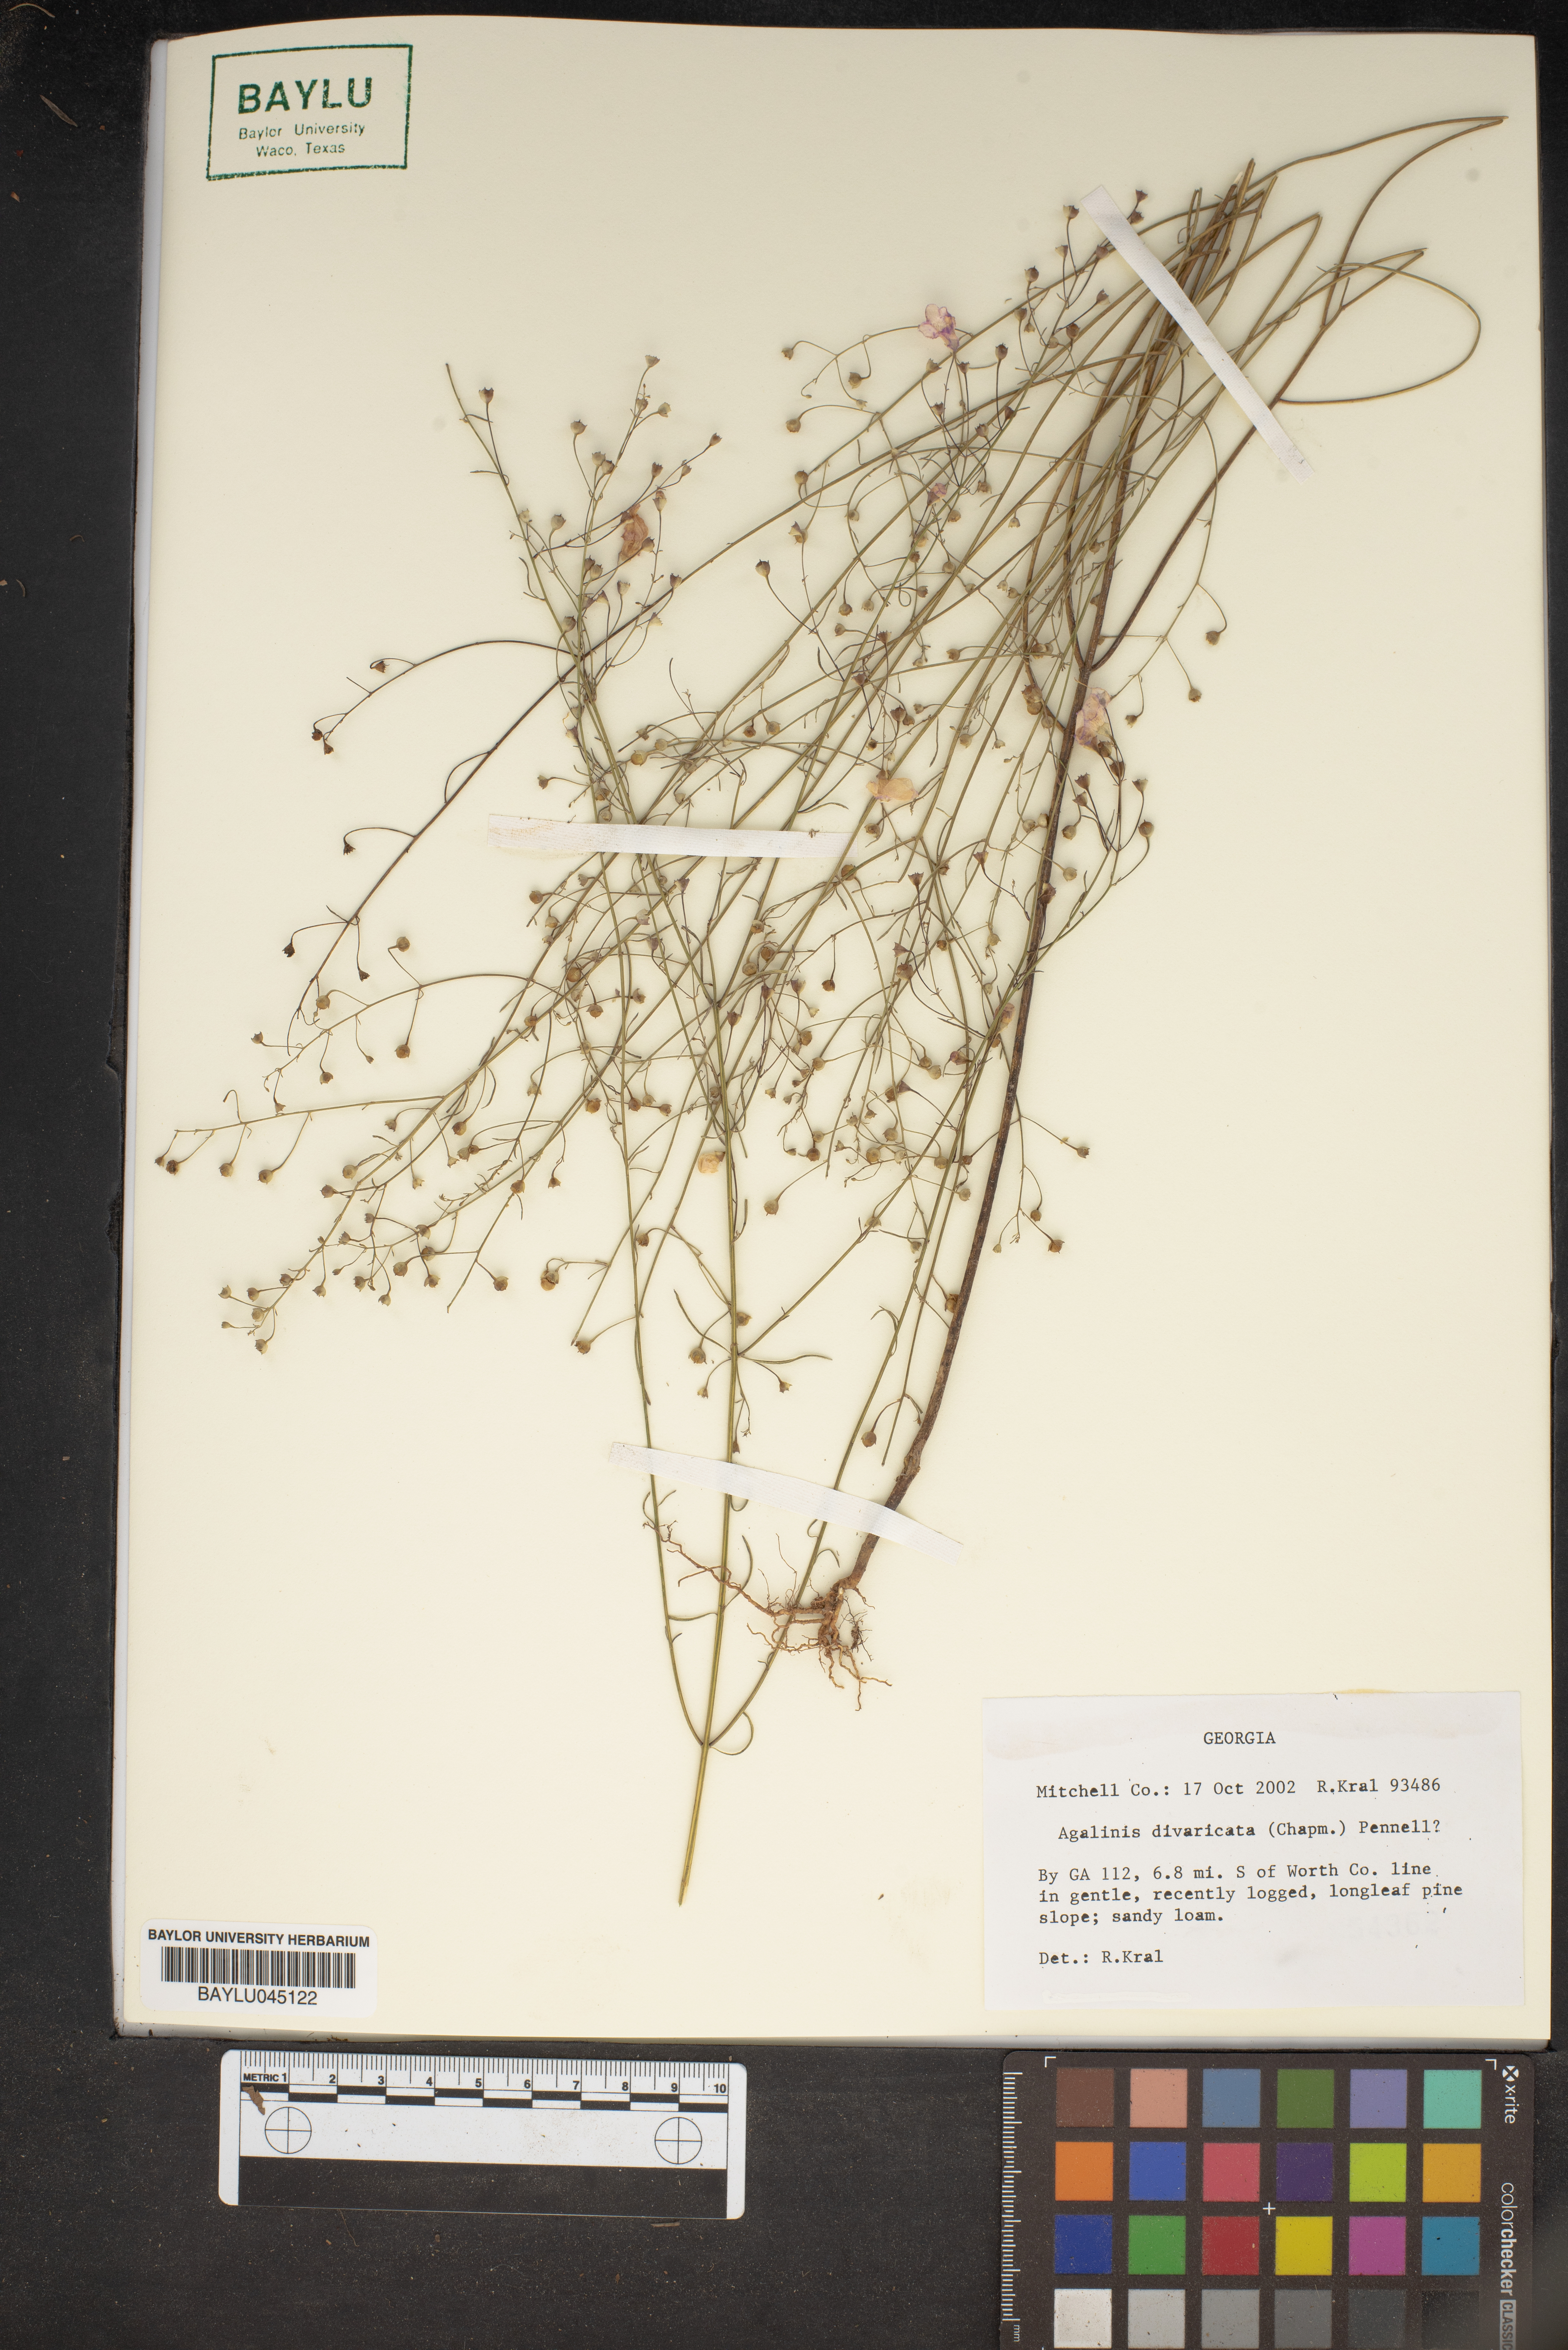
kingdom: Plantae
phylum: Tracheophyta
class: Magnoliopsida
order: Lamiales
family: Orobanchaceae
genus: Agalinis
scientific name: Agalinis divaricata
